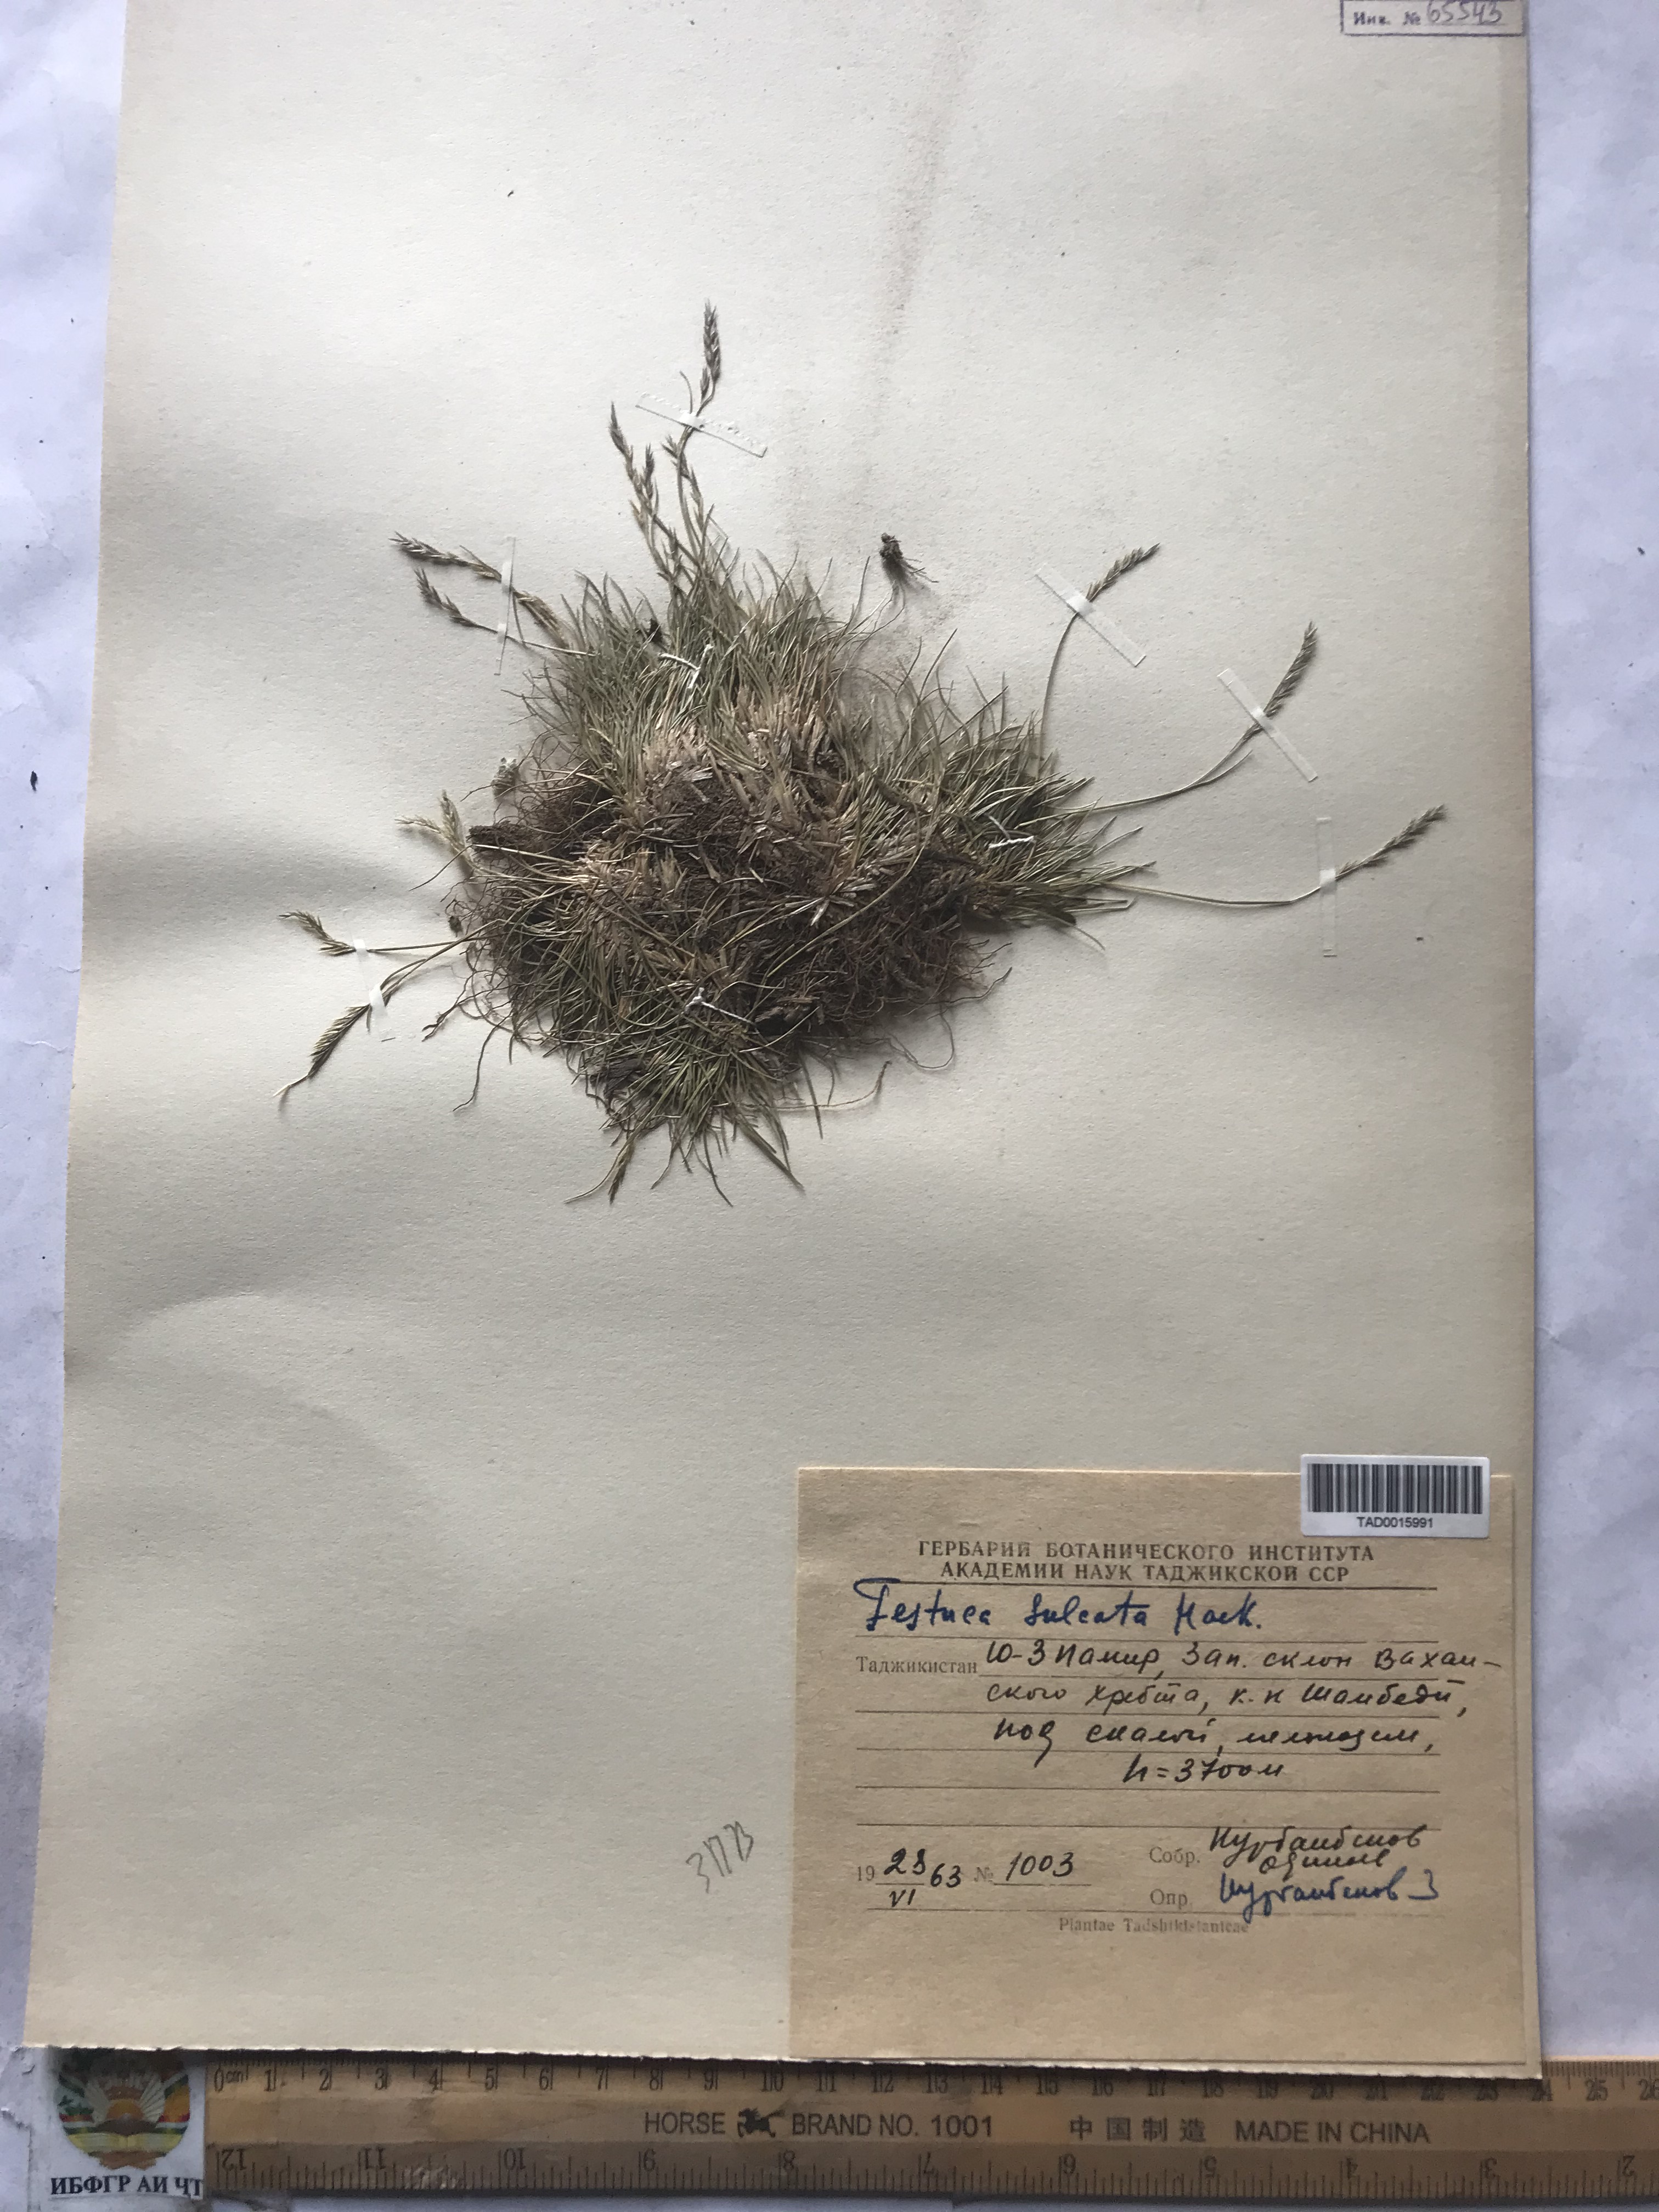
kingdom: Plantae
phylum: Tracheophyta
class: Liliopsida
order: Poales
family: Poaceae
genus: Festuca
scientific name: Festuca sulcata
